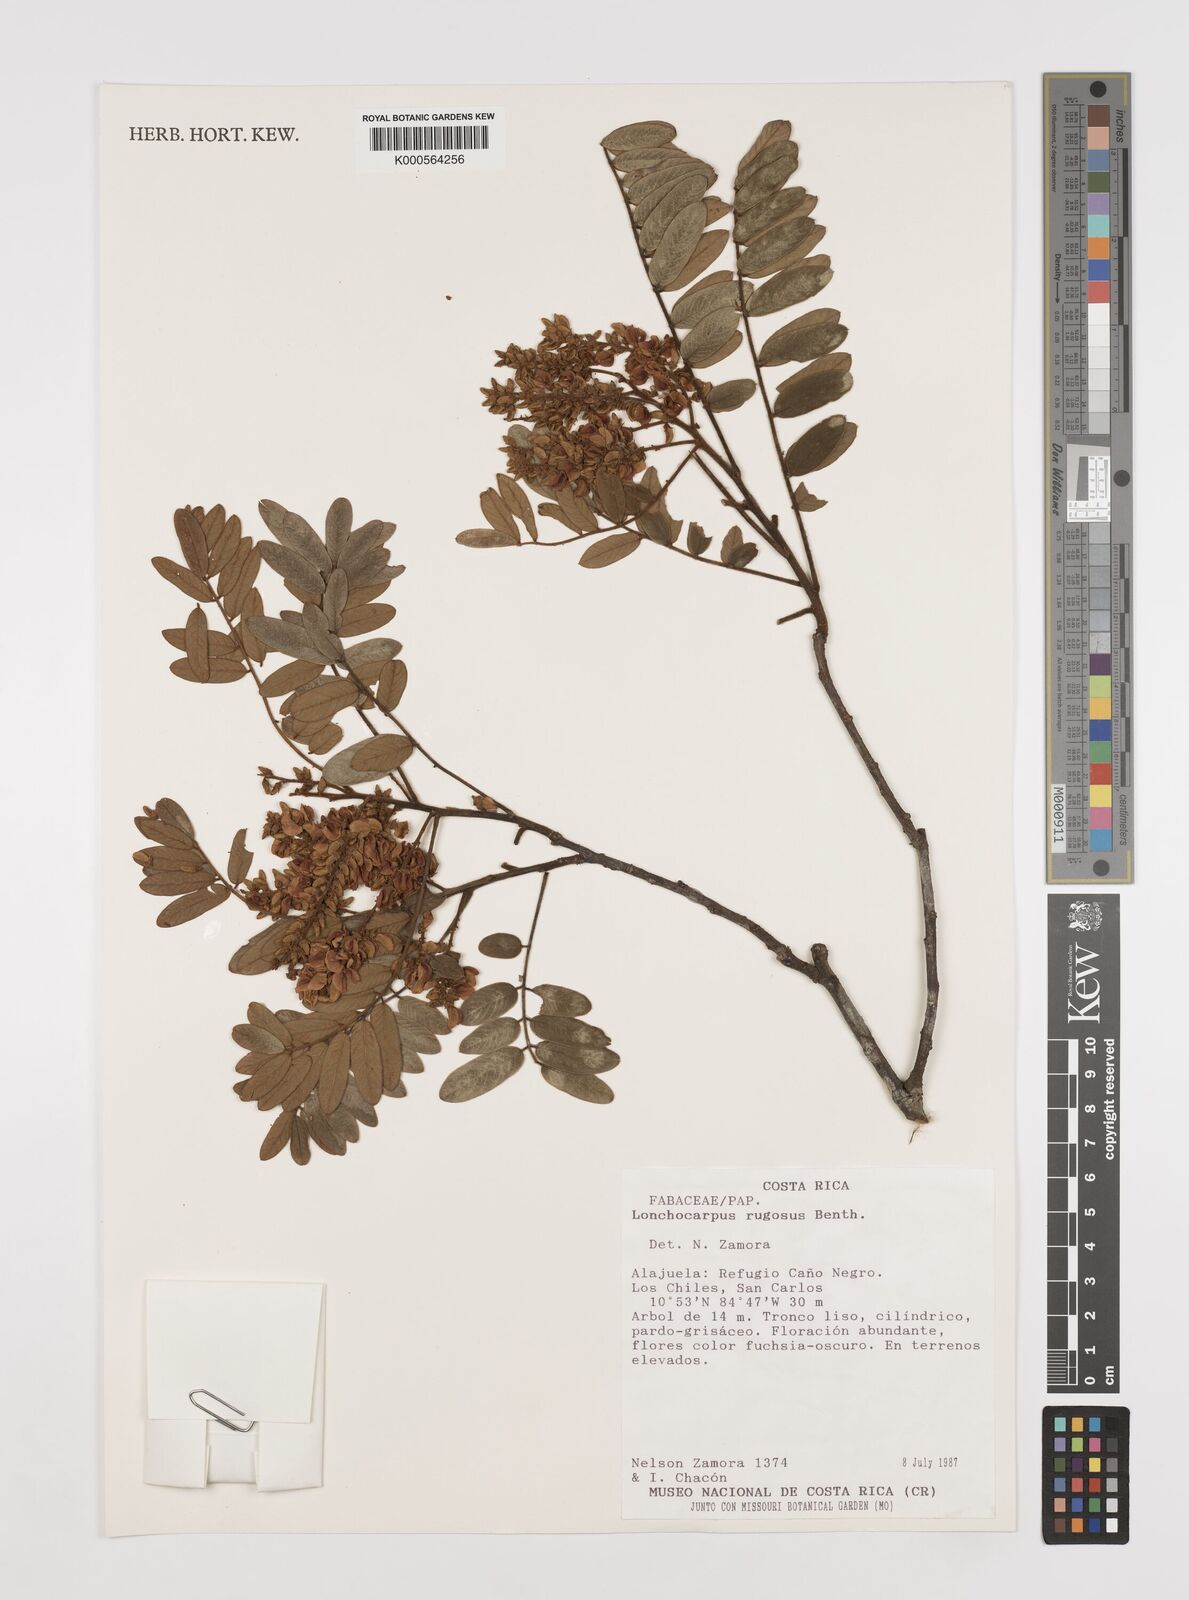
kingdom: Plantae
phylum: Tracheophyta
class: Magnoliopsida
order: Fabales
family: Fabaceae
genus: Lonchocarpus
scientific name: Lonchocarpus rugosus
